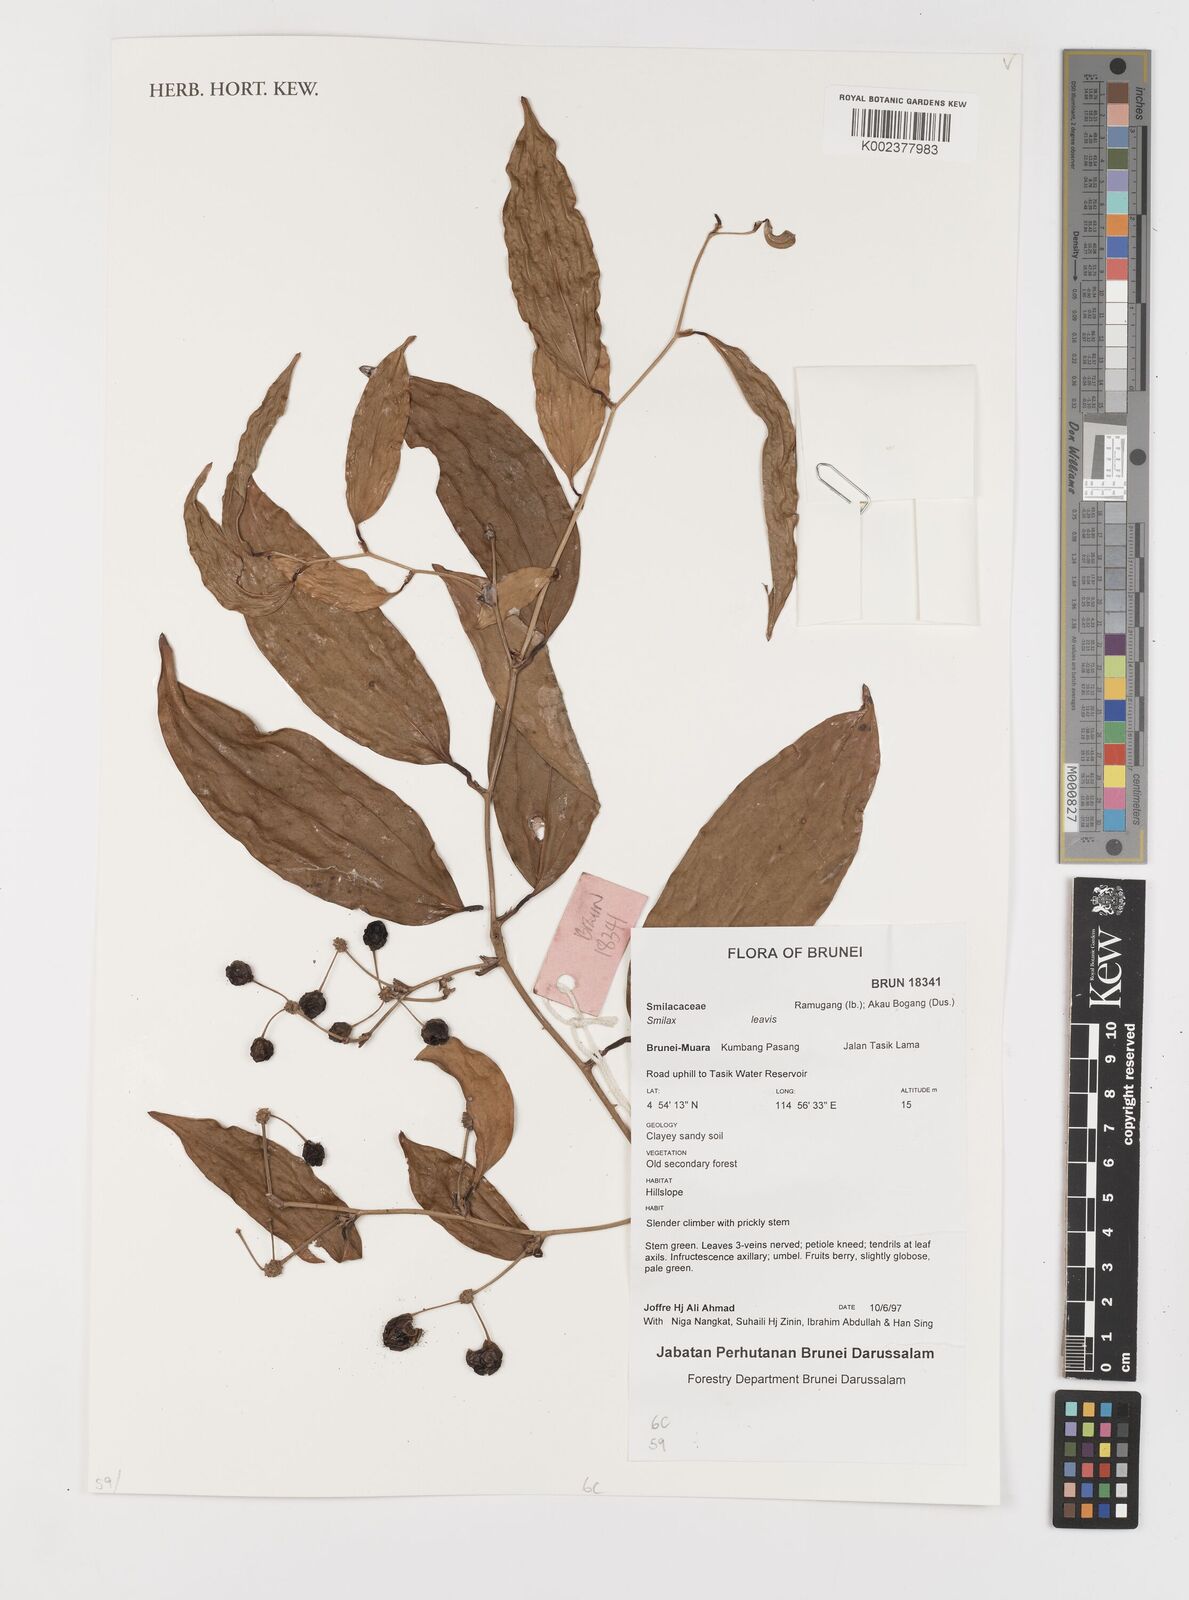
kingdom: Plantae
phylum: Tracheophyta
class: Liliopsida
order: Liliales
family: Smilacaceae
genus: Smilax
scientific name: Smilax
